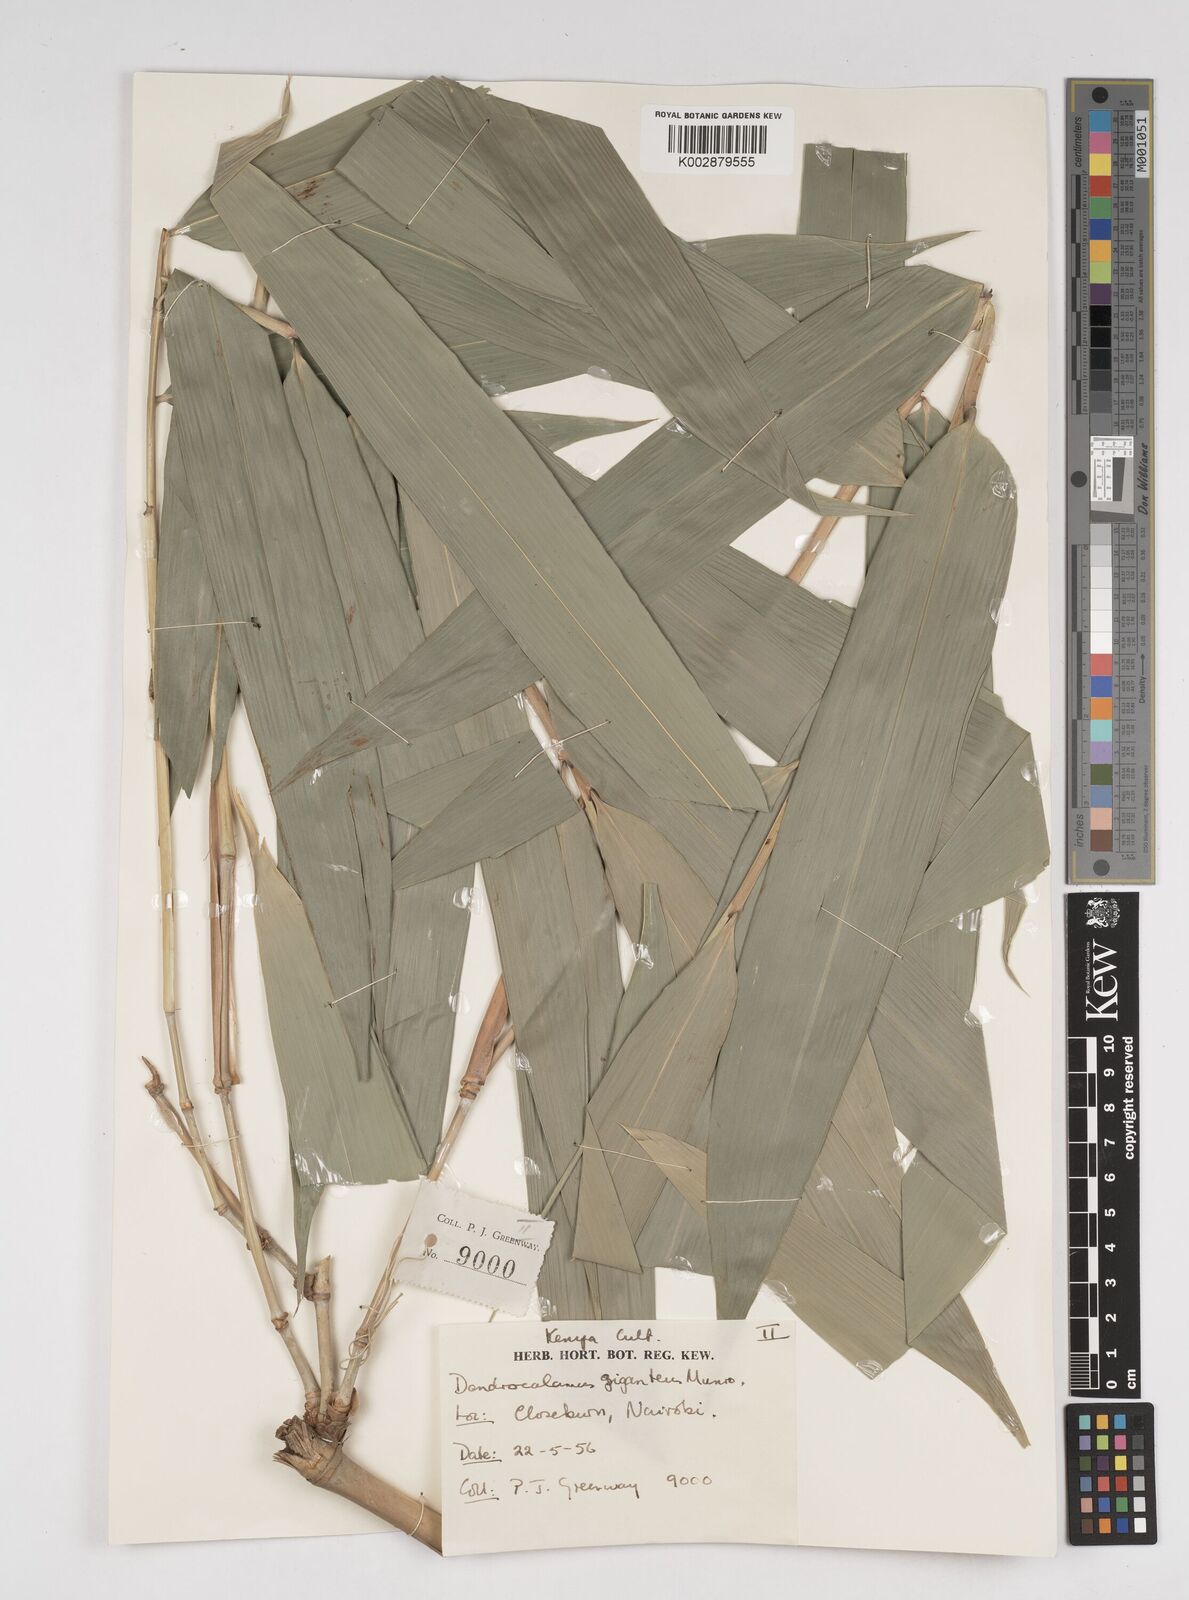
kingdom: Plantae
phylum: Tracheophyta
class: Liliopsida
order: Poales
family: Poaceae
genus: Dendrocalamus
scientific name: Dendrocalamus giganteus
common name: Giant bamboo
